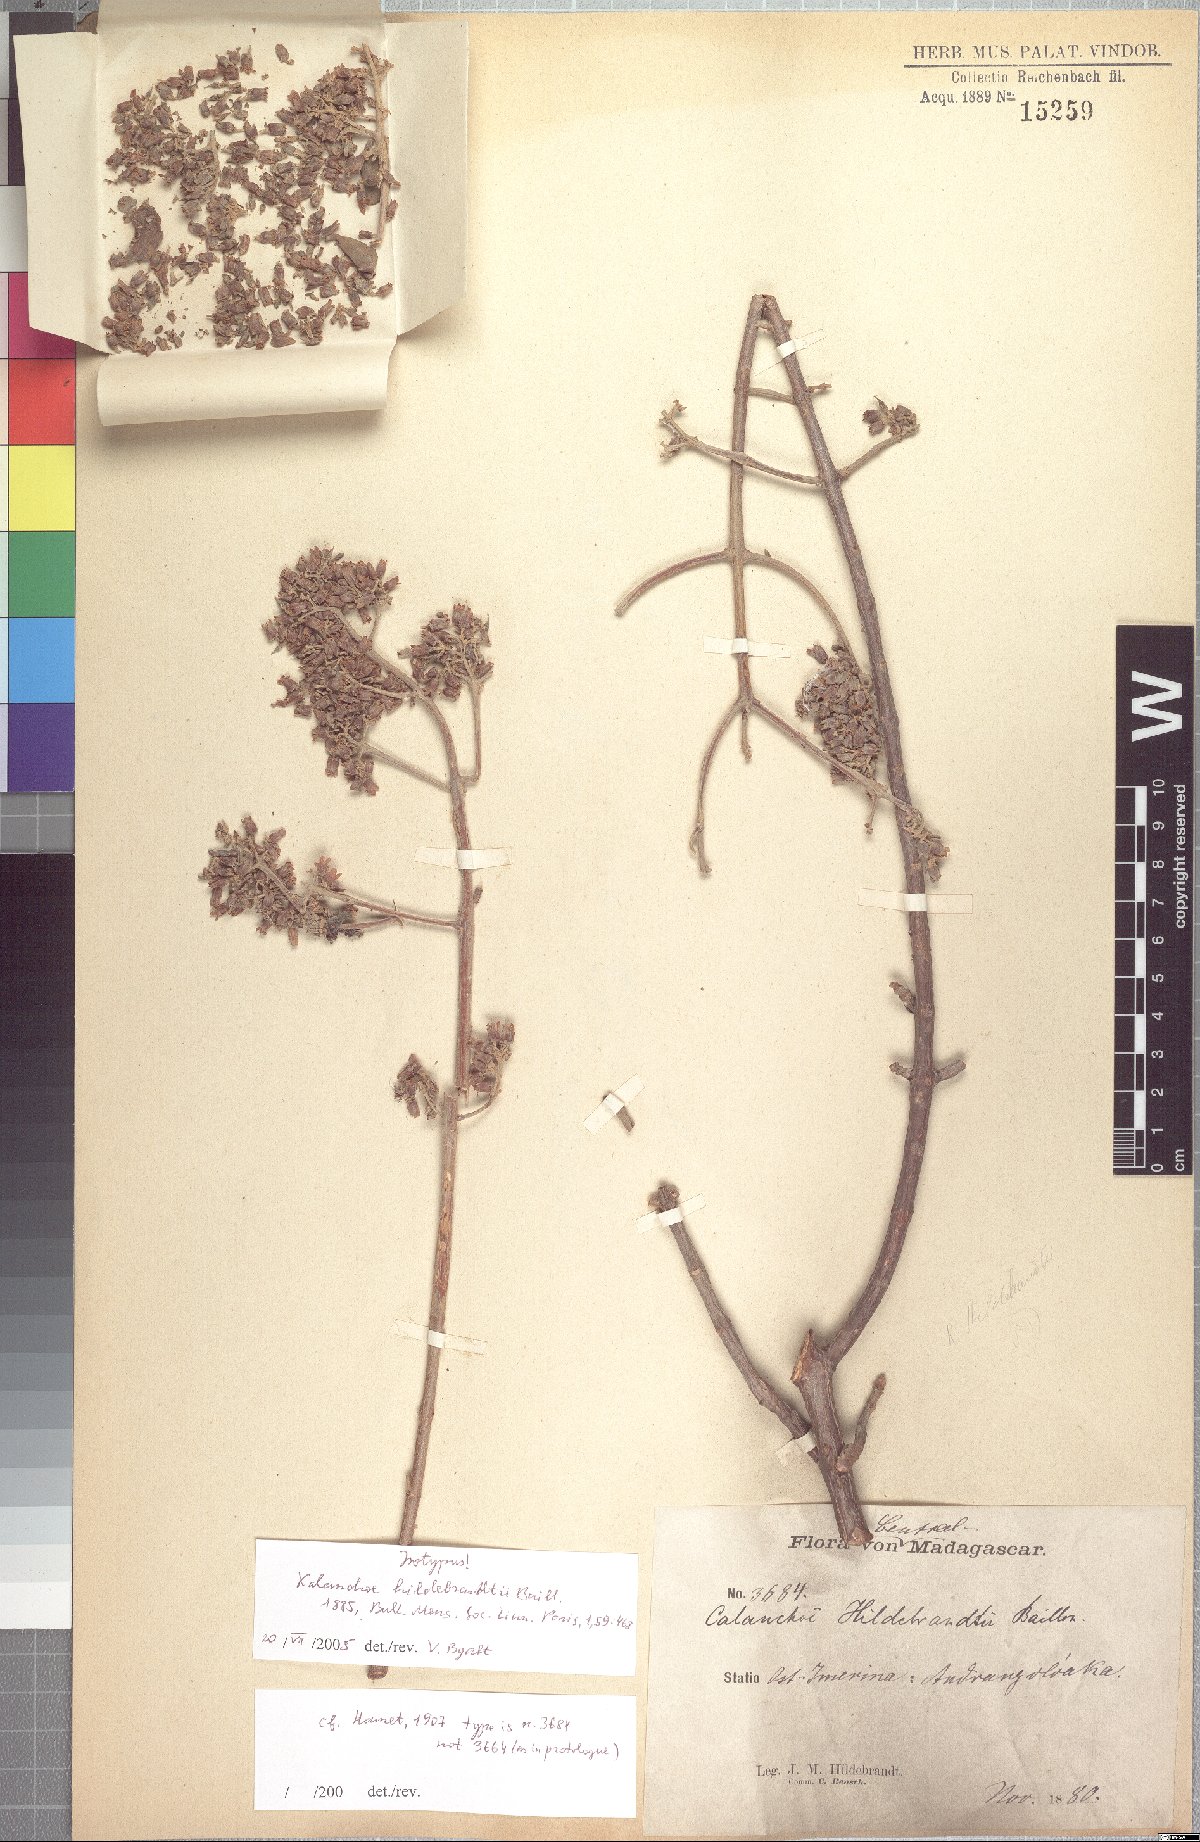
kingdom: Plantae
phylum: Tracheophyta
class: Magnoliopsida
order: Saxifragales
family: Crassulaceae
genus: Kalanchoe
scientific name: Kalanchoe hildebrandtii
